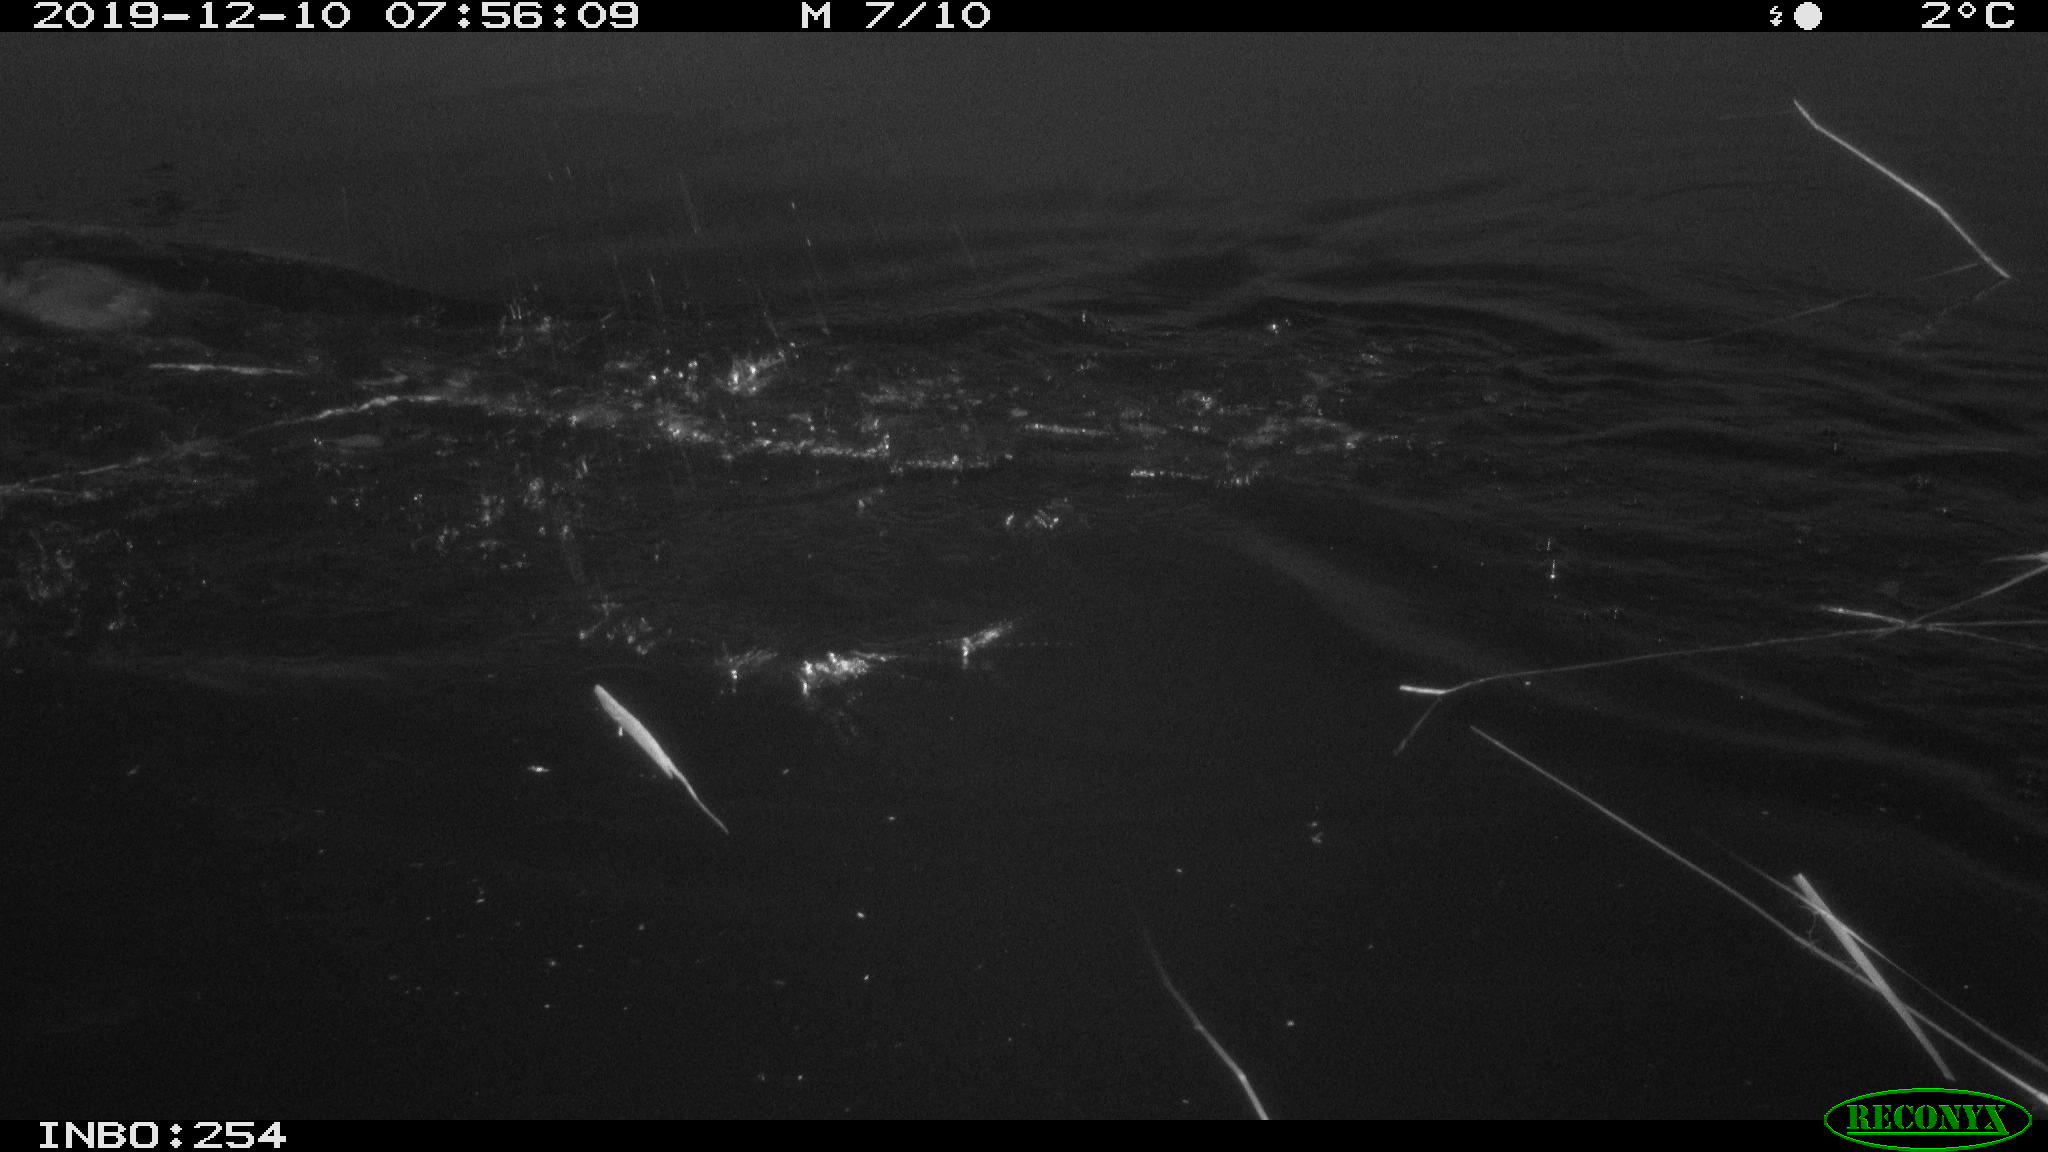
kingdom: Animalia
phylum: Chordata
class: Aves
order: Gruiformes
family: Rallidae
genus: Gallinula
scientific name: Gallinula chloropus
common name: Common moorhen
